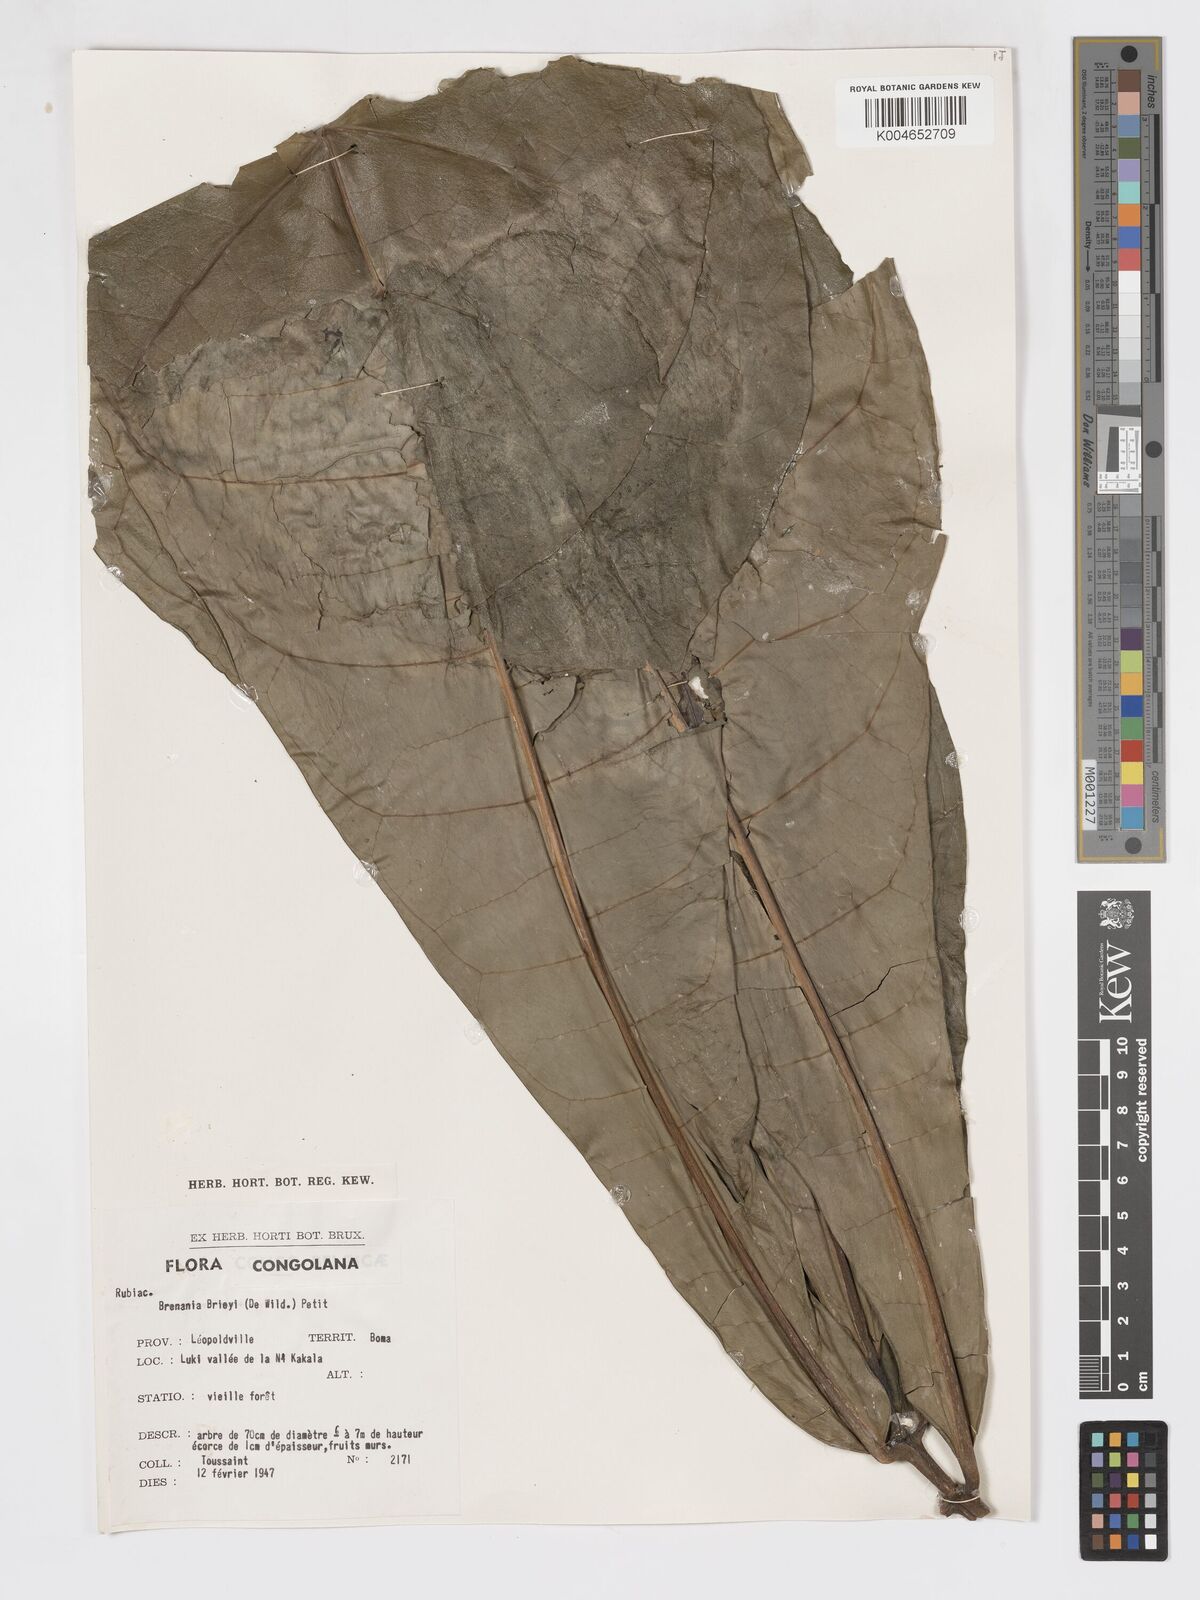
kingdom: Plantae
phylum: Tracheophyta
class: Magnoliopsida
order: Gentianales
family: Rubiaceae
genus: Brenania
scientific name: Brenania brieyi
